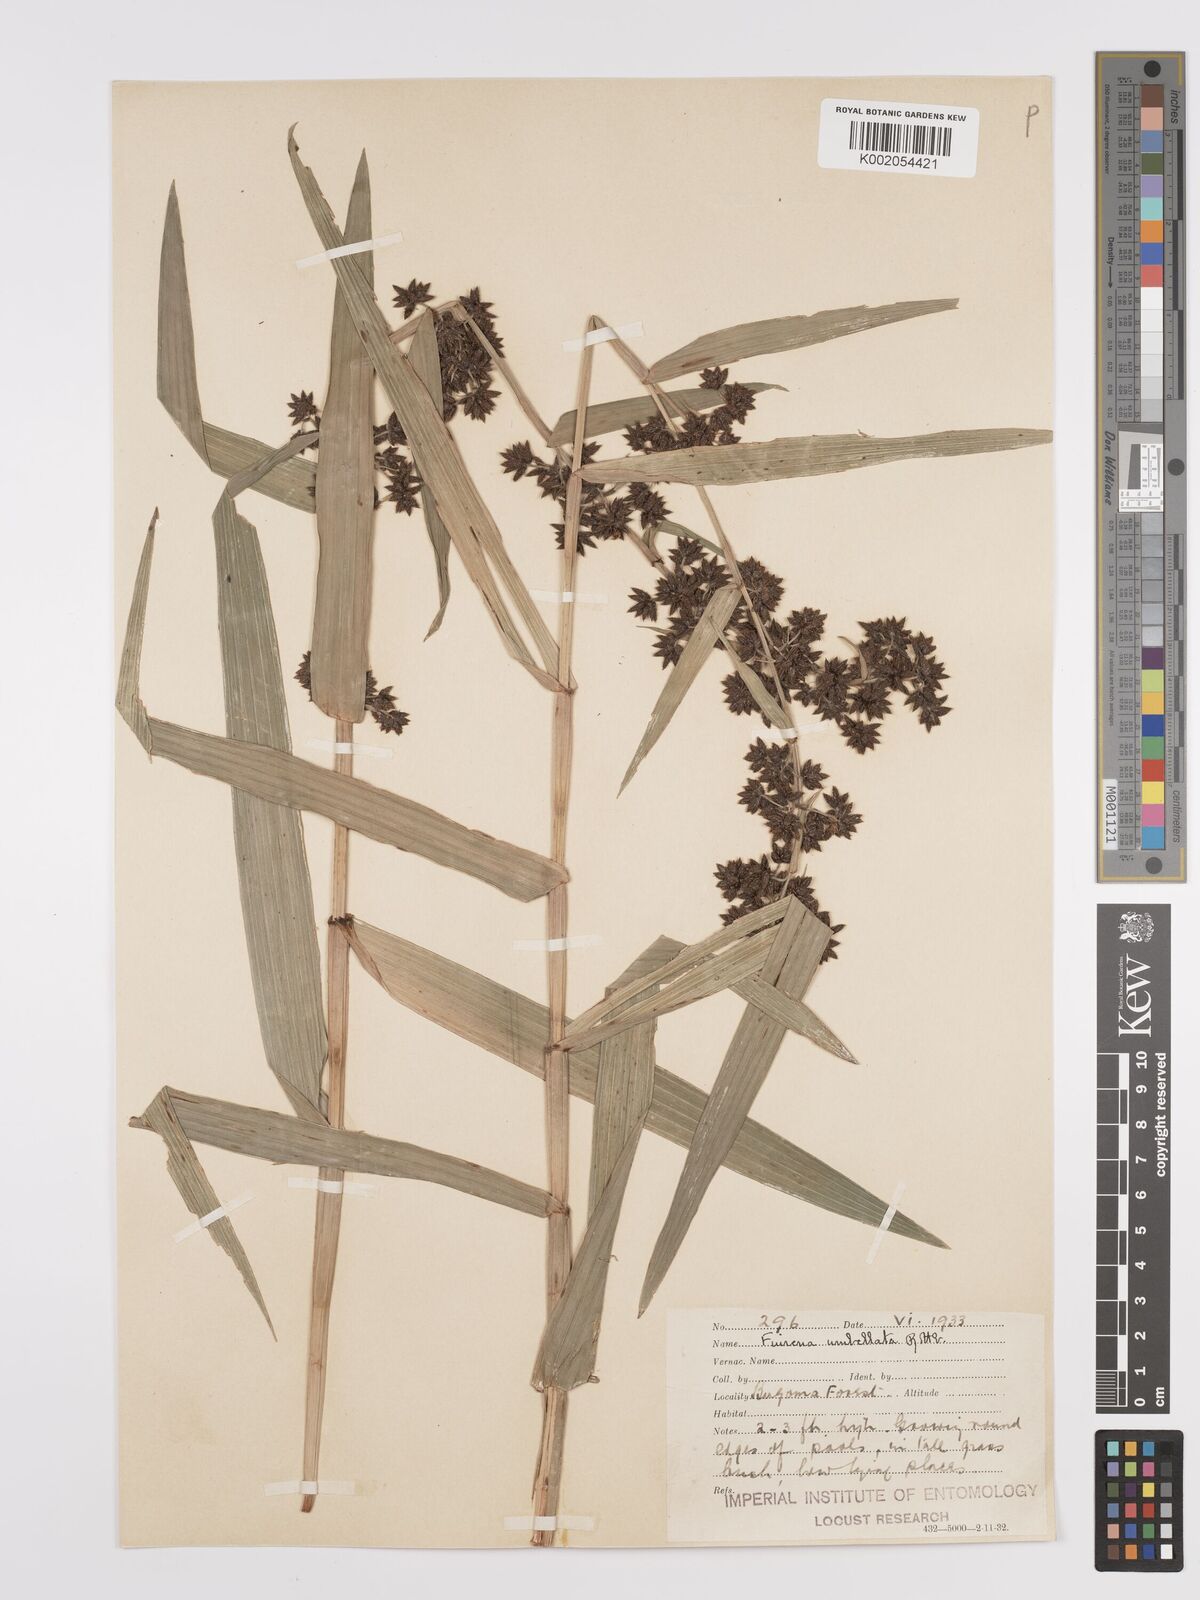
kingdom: Plantae
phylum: Tracheophyta
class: Liliopsida
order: Poales
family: Cyperaceae
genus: Fuirena
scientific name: Fuirena umbellata
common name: Yefen
